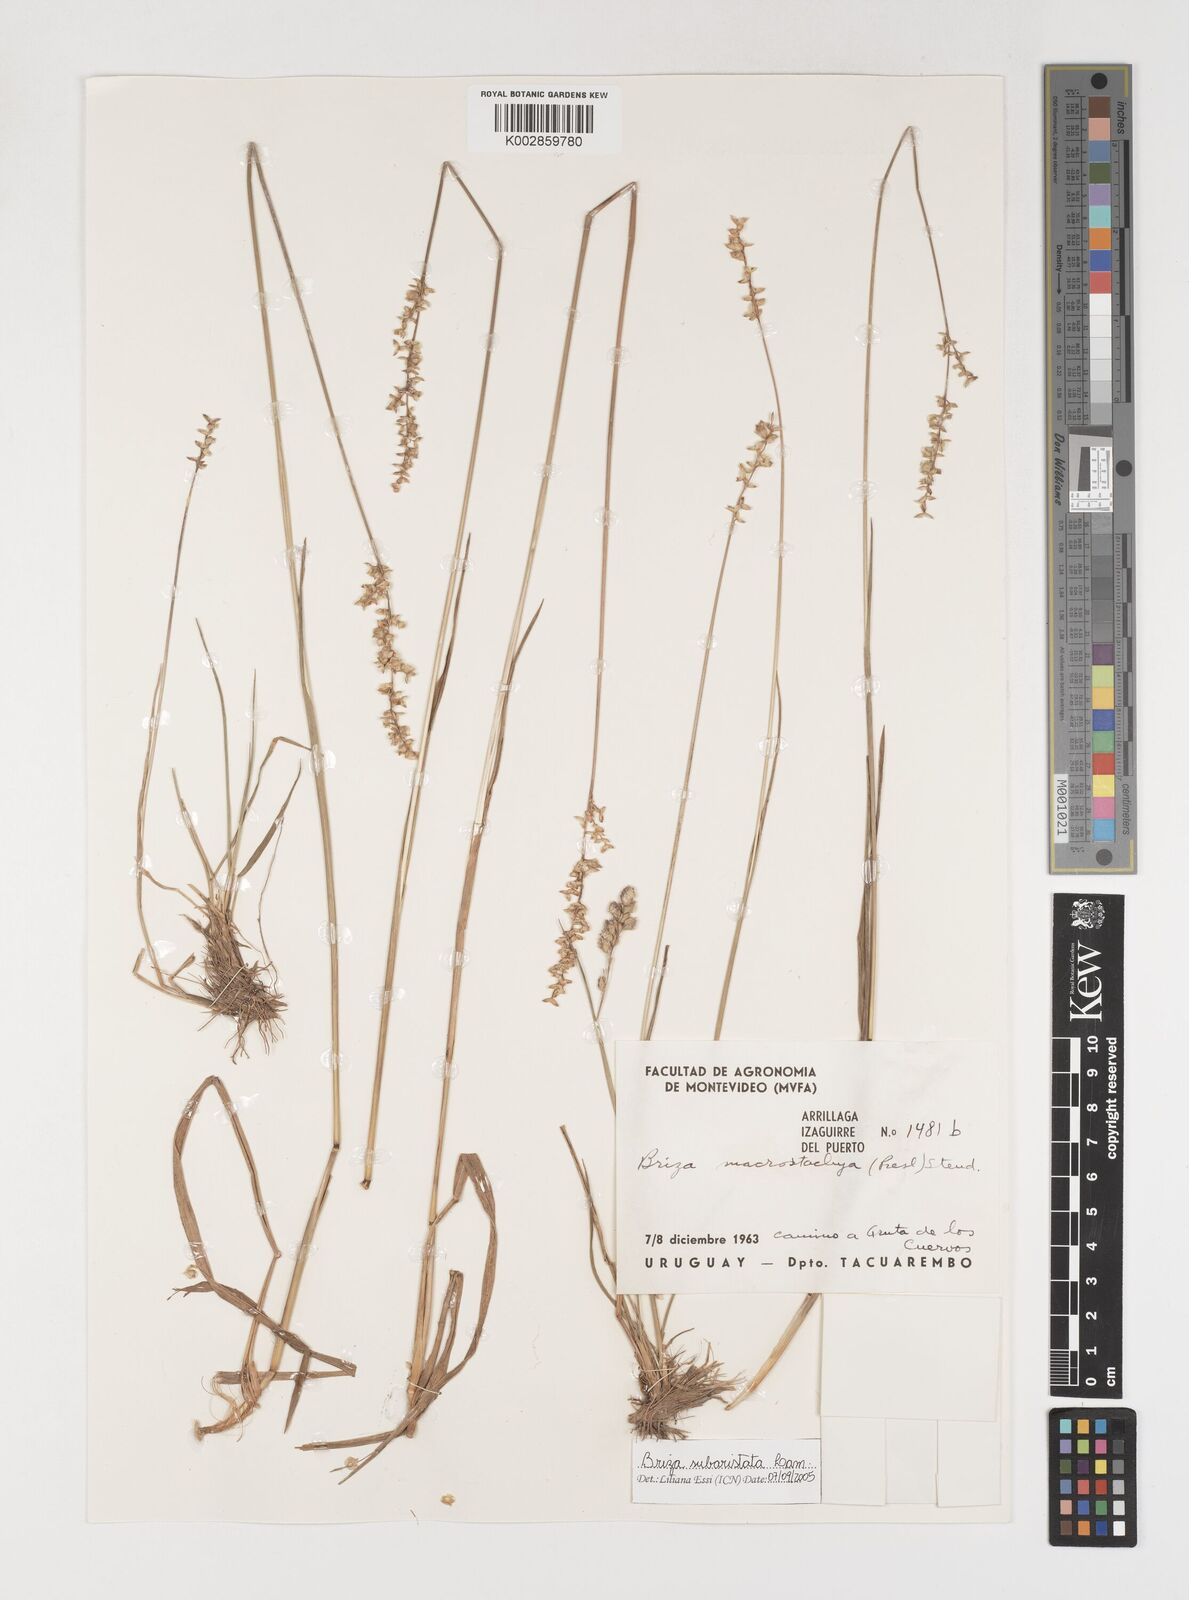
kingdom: Plantae
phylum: Tracheophyta
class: Liliopsida
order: Poales
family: Poaceae
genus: Chascolytrum
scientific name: Chascolytrum subaristatum
